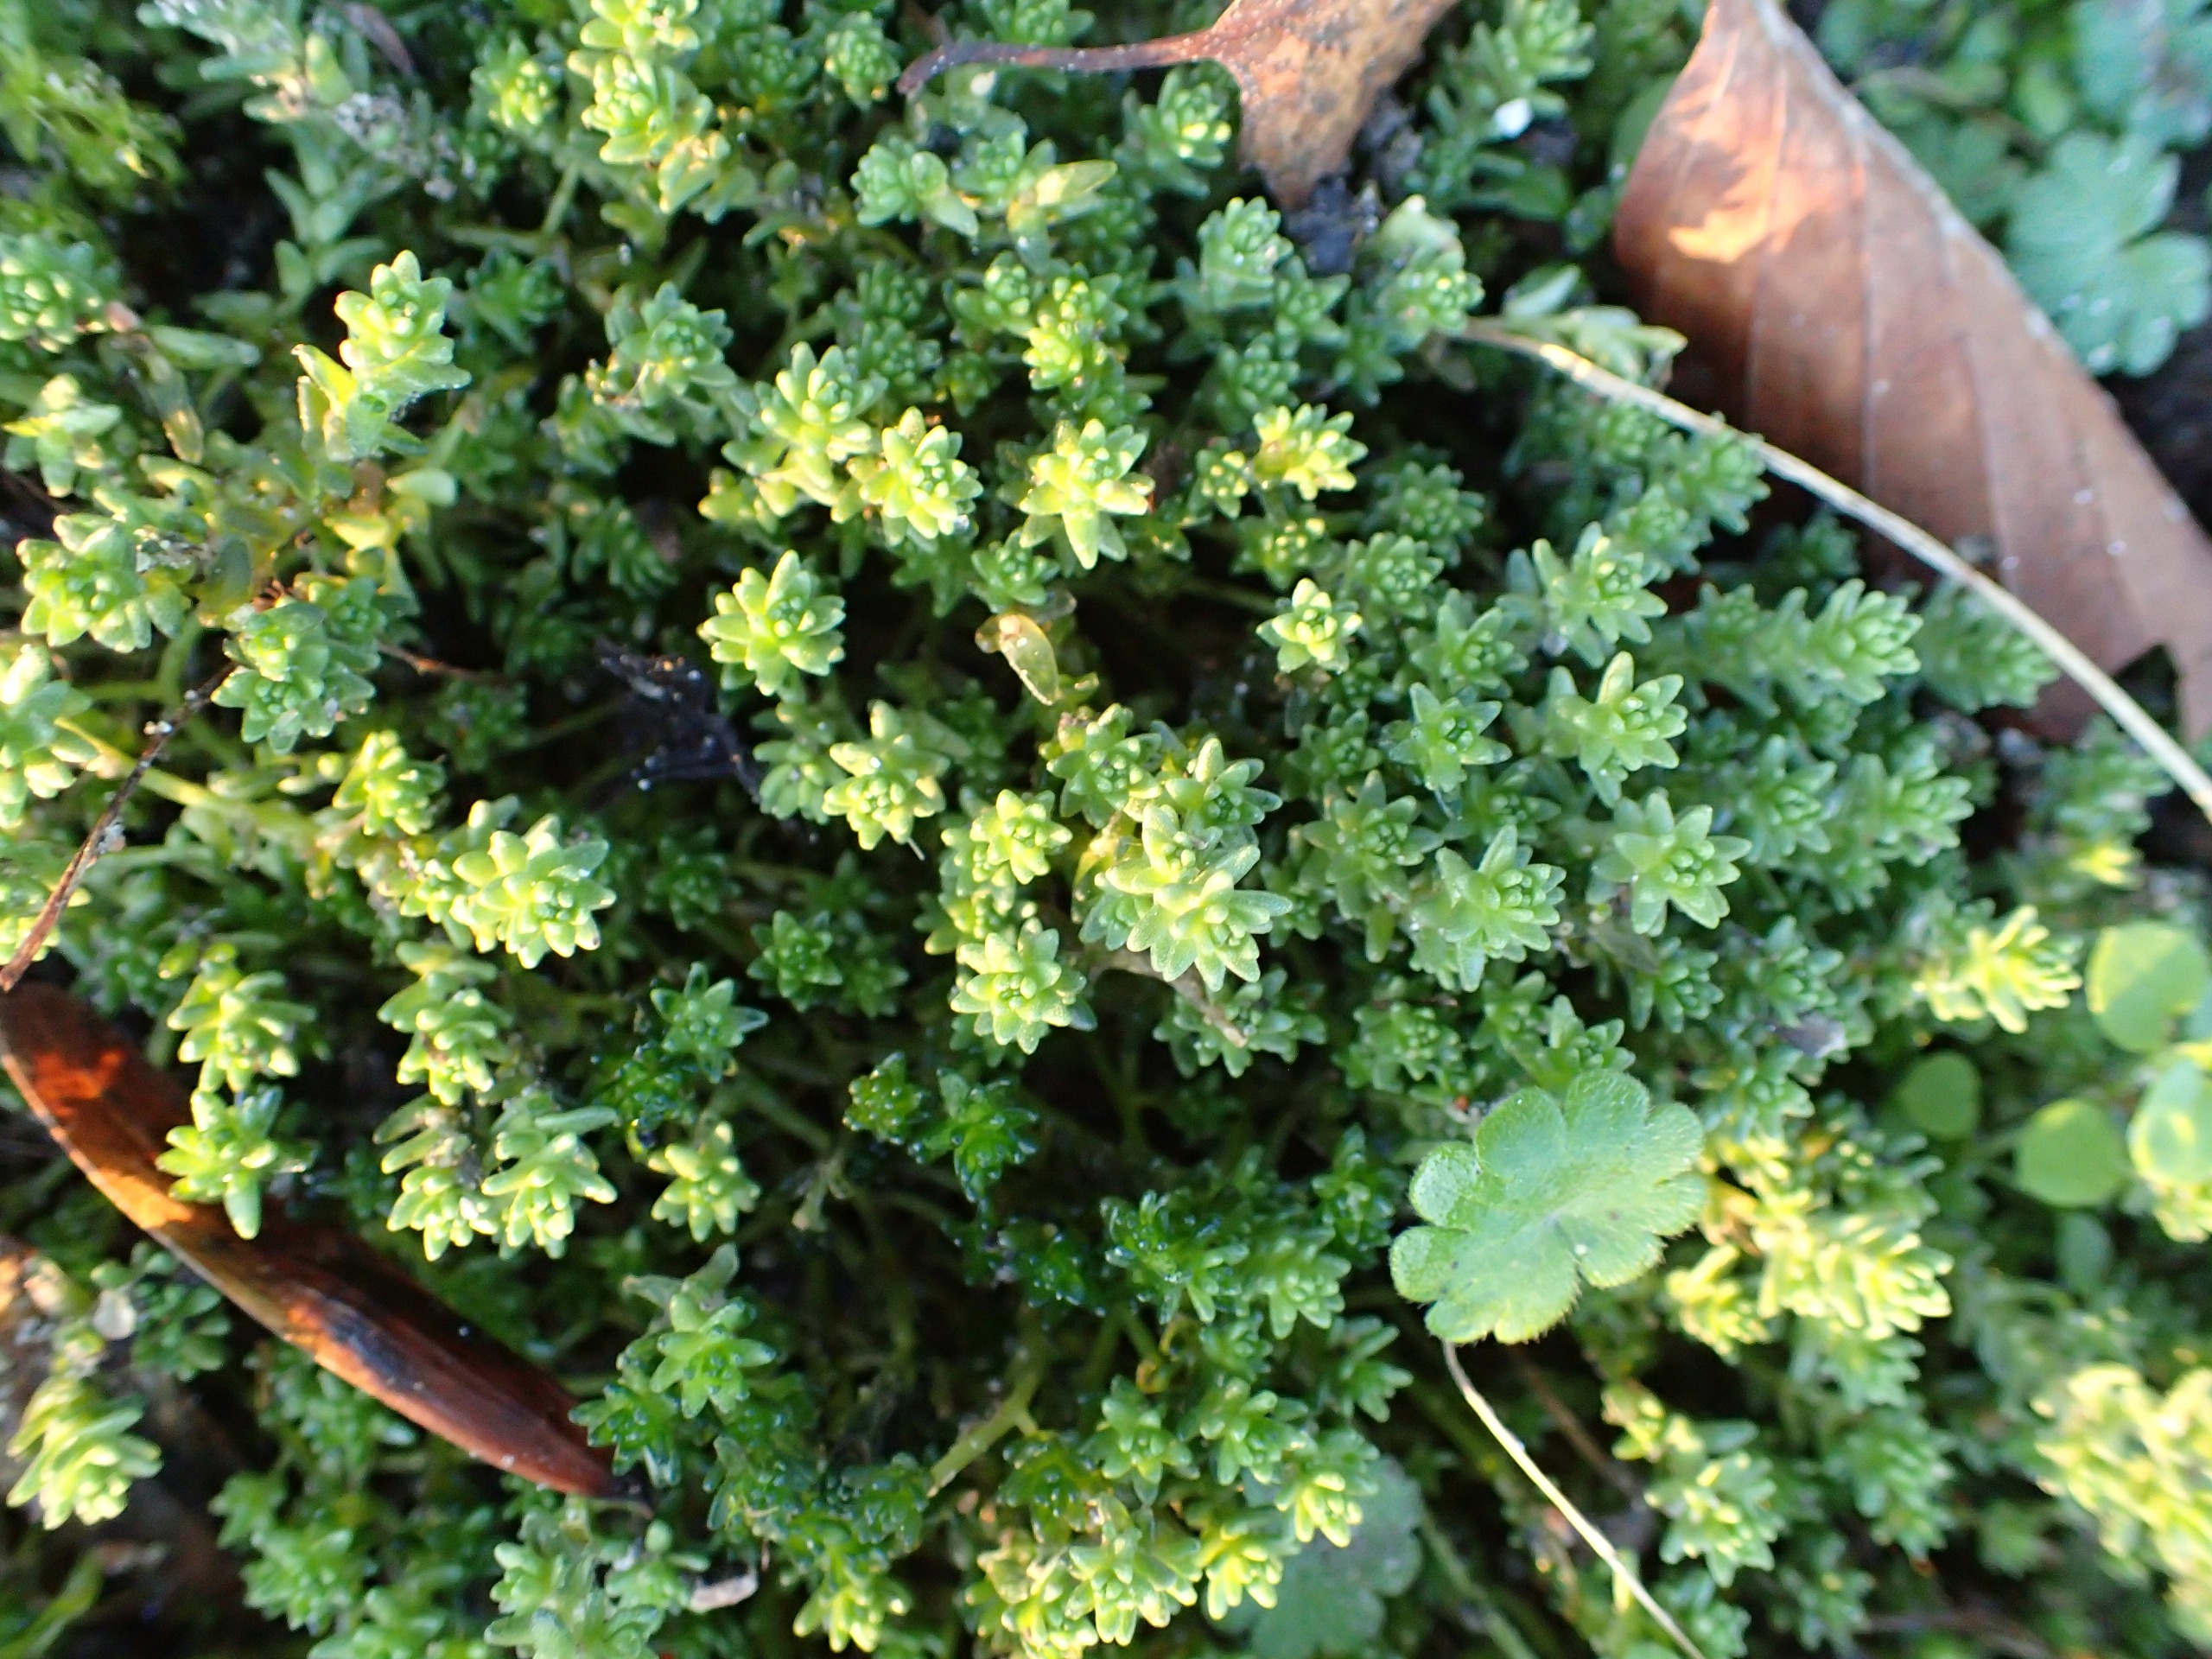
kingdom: Plantae
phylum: Tracheophyta
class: Magnoliopsida
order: Saxifragales
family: Crassulaceae
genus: Sedum
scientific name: Sedum acre
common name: Bidende stenurt
